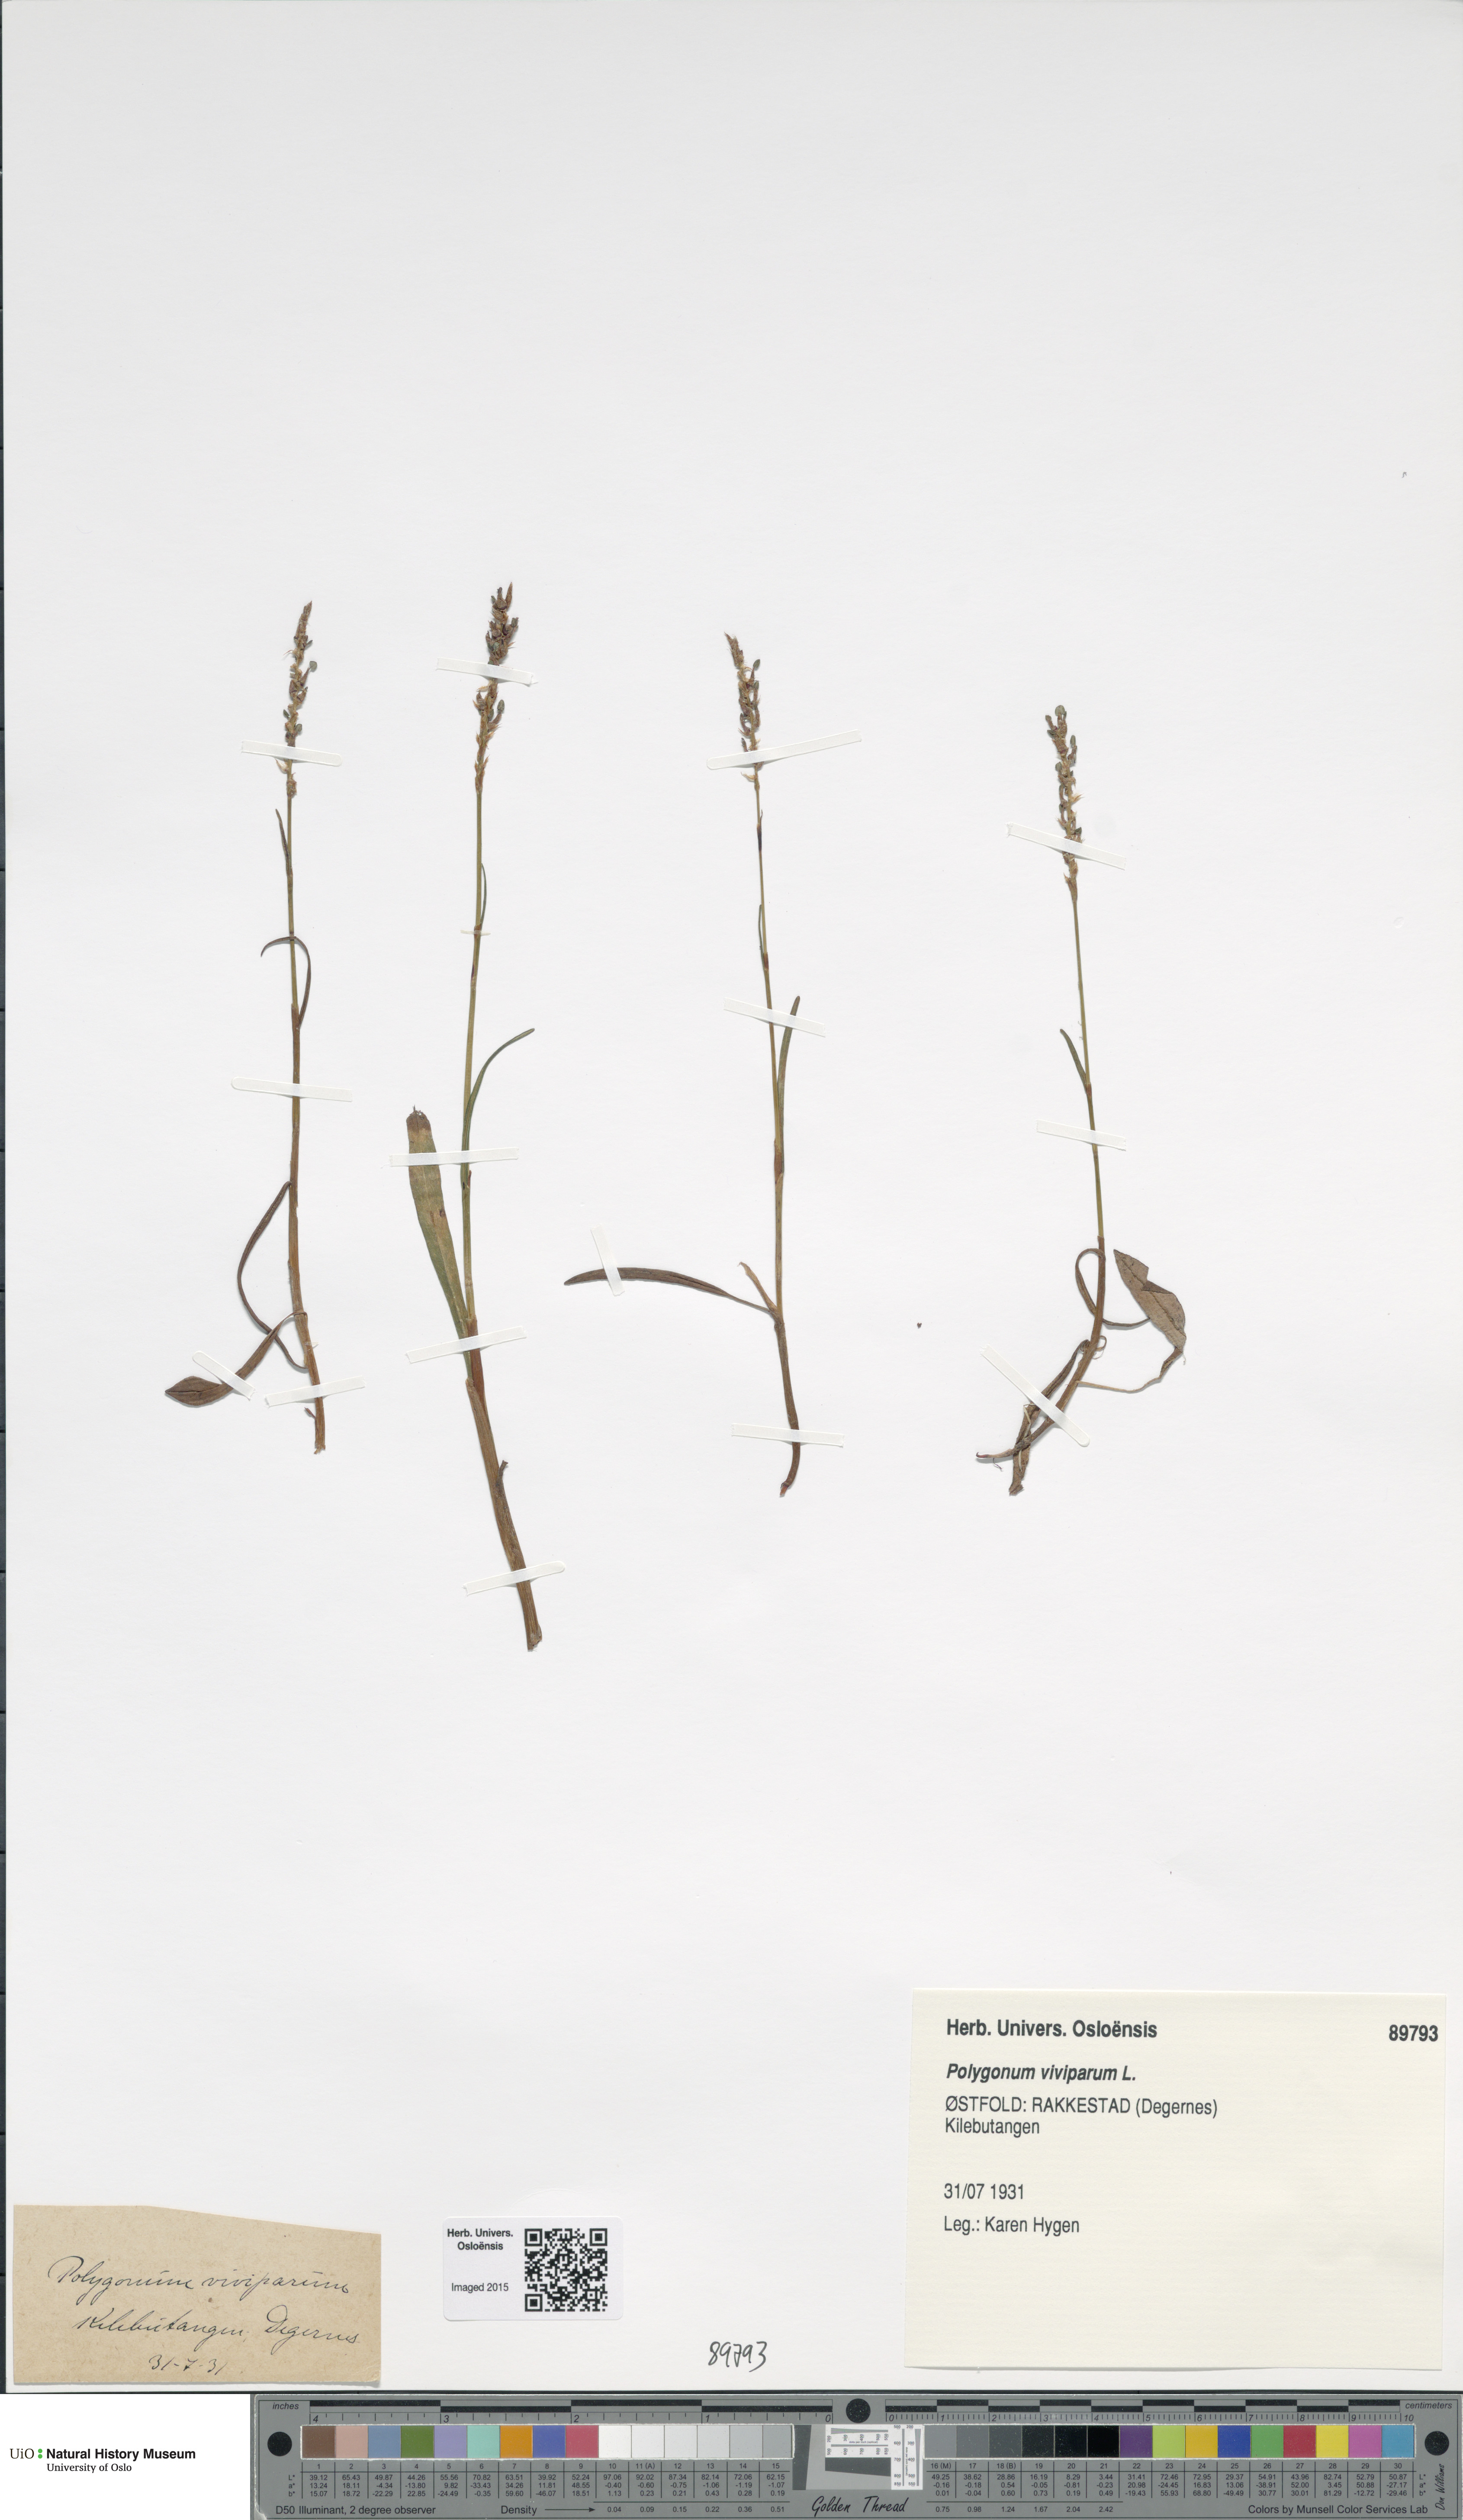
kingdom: Plantae
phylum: Tracheophyta
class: Magnoliopsida
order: Caryophyllales
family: Polygonaceae
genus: Bistorta
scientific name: Bistorta vivipara
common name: Alpine bistort
